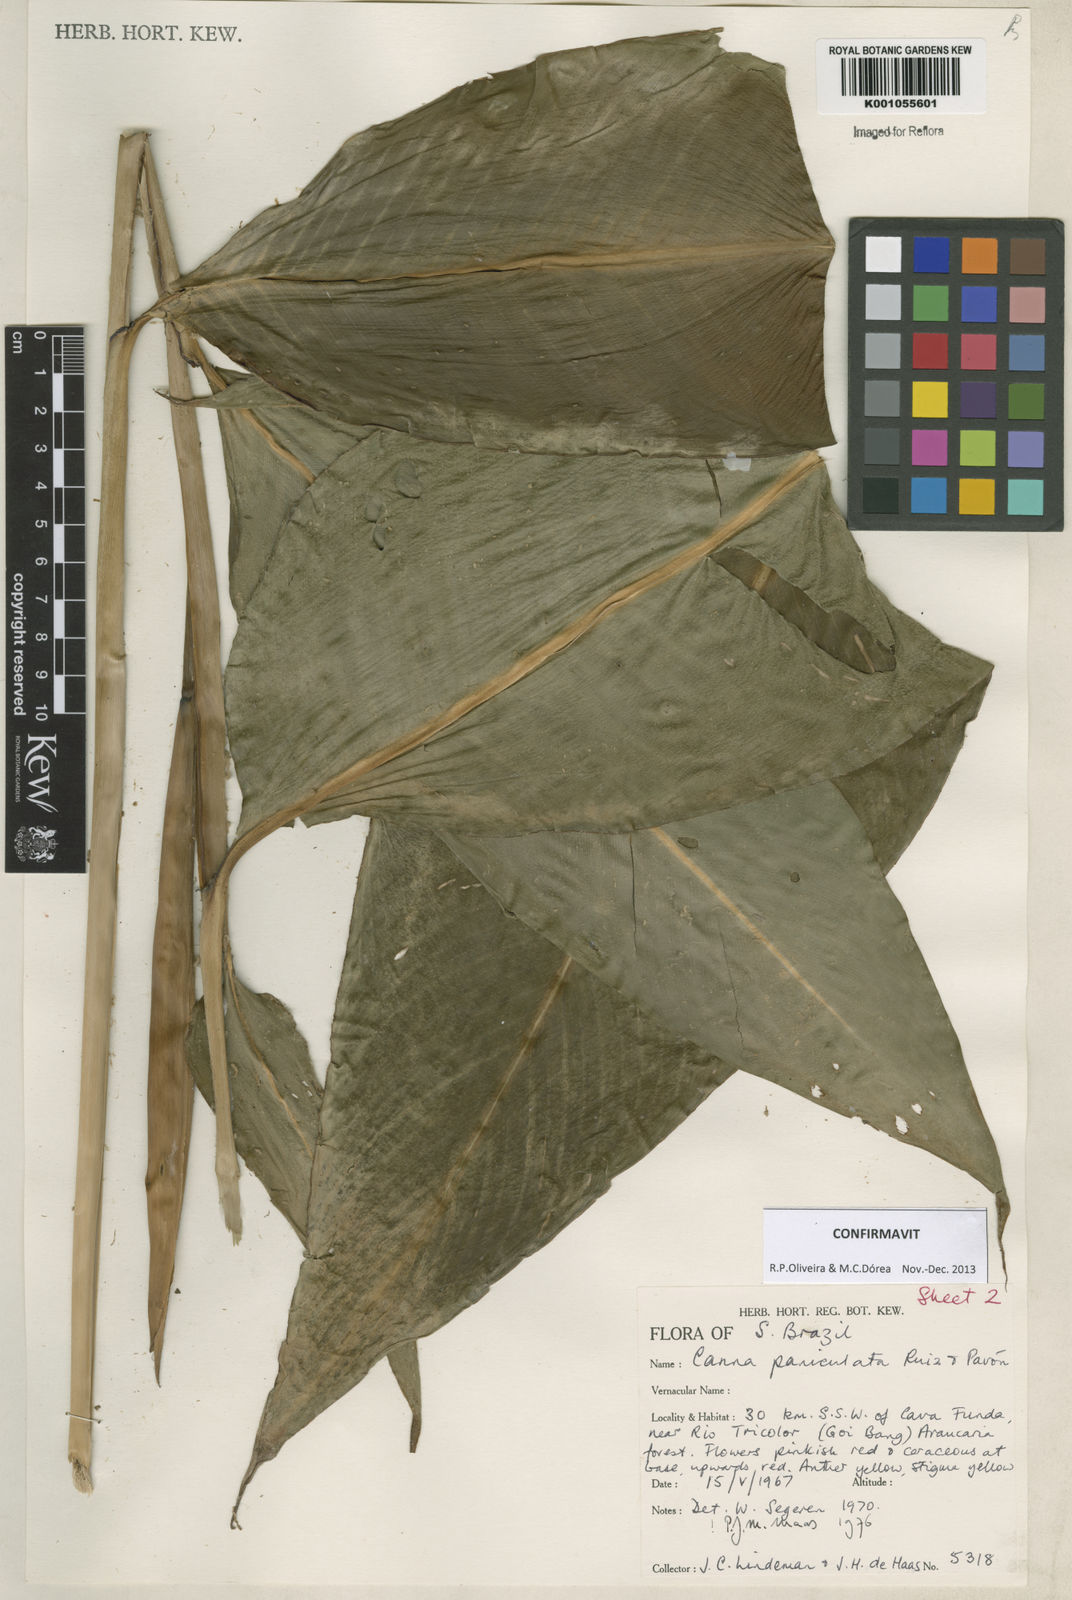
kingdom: Plantae
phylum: Tracheophyta
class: Liliopsida
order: Zingiberales
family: Cannaceae
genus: Canna
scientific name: Canna paniculata
